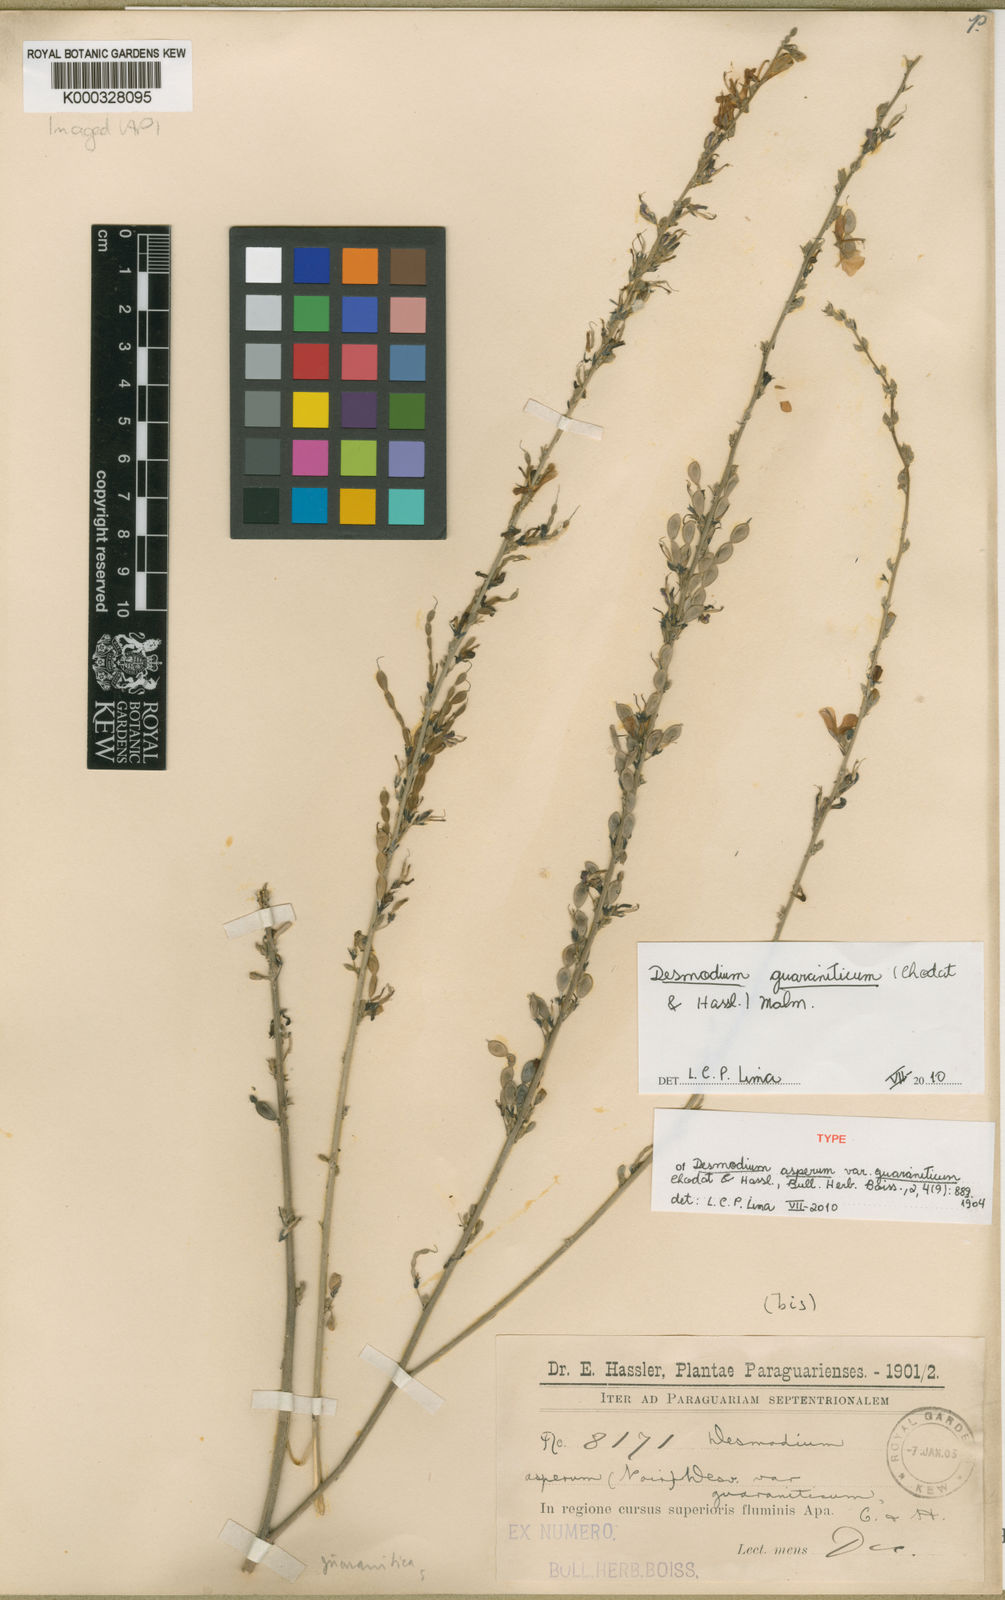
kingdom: Plantae
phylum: Tracheophyta
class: Magnoliopsida
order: Fabales
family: Fabaceae
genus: Desmodium
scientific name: Desmodium guaraniticum
